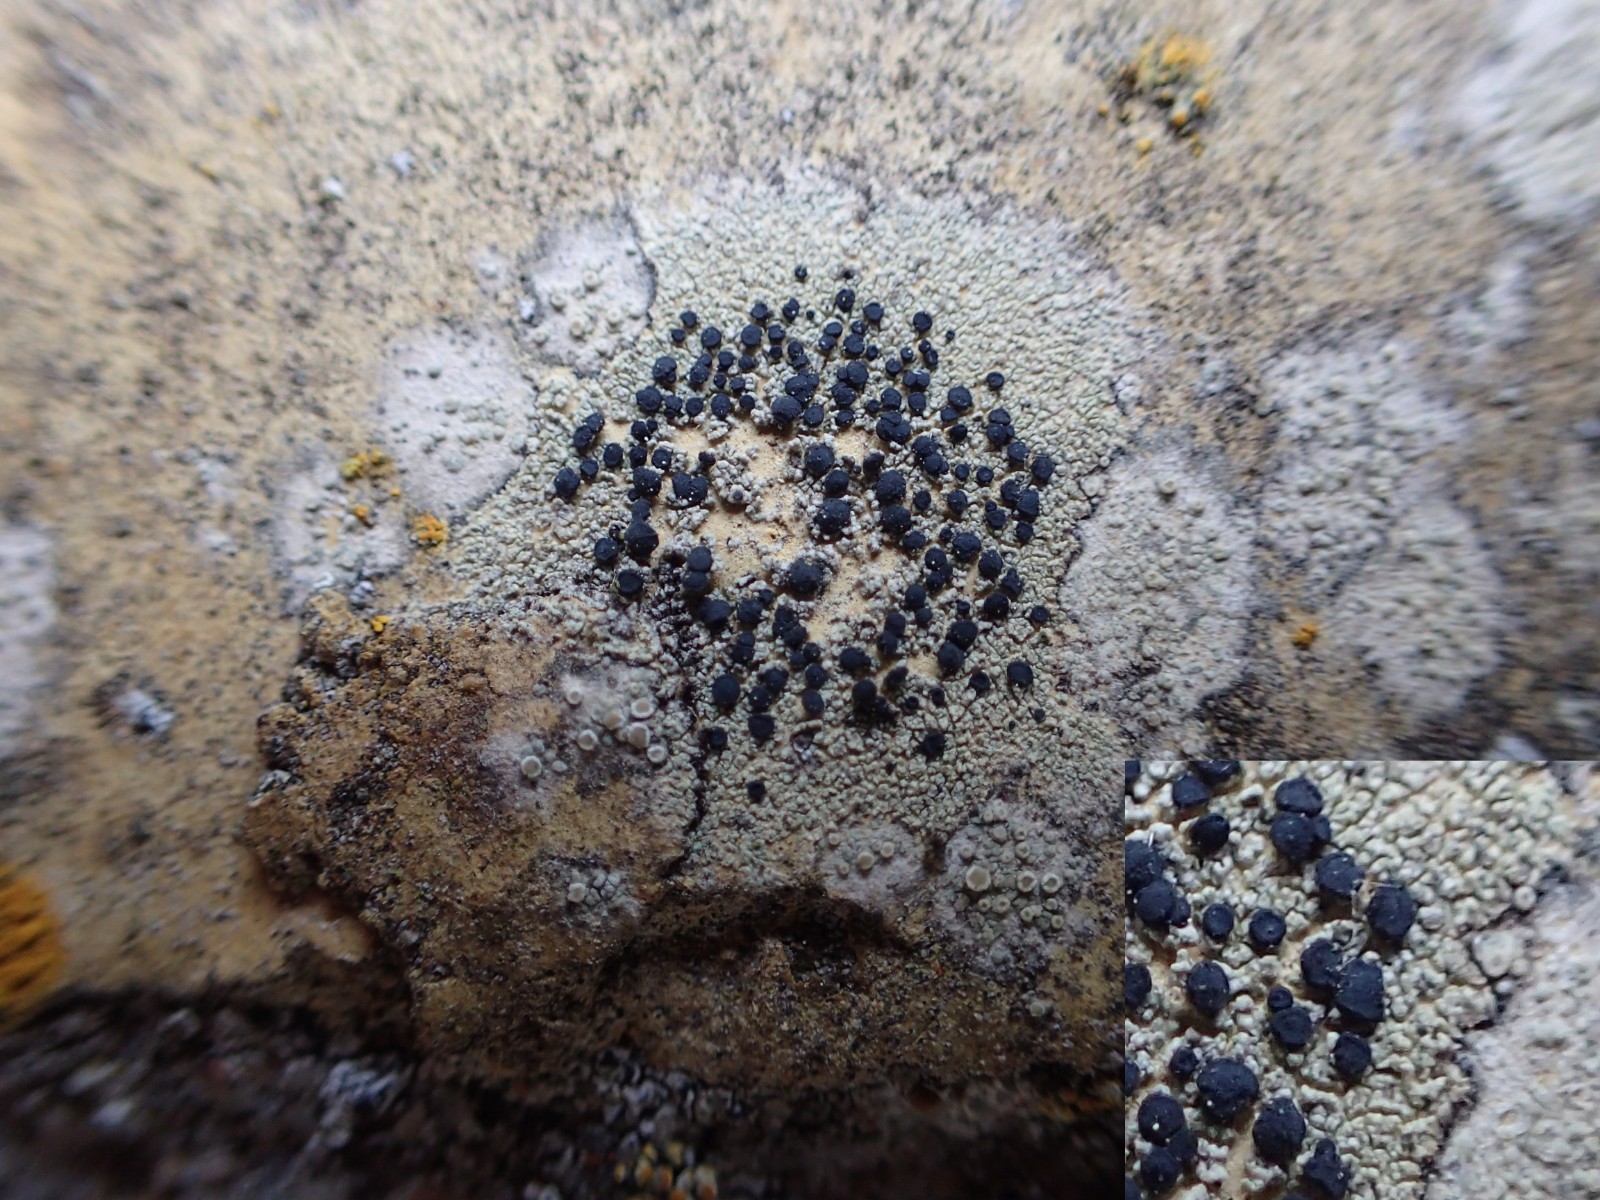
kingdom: Fungi
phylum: Ascomycota
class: Lecanoromycetes
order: Lecanorales
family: Lecanoraceae
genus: Lecidella
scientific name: Lecidella stigmatea
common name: kalkstens-skivelav
